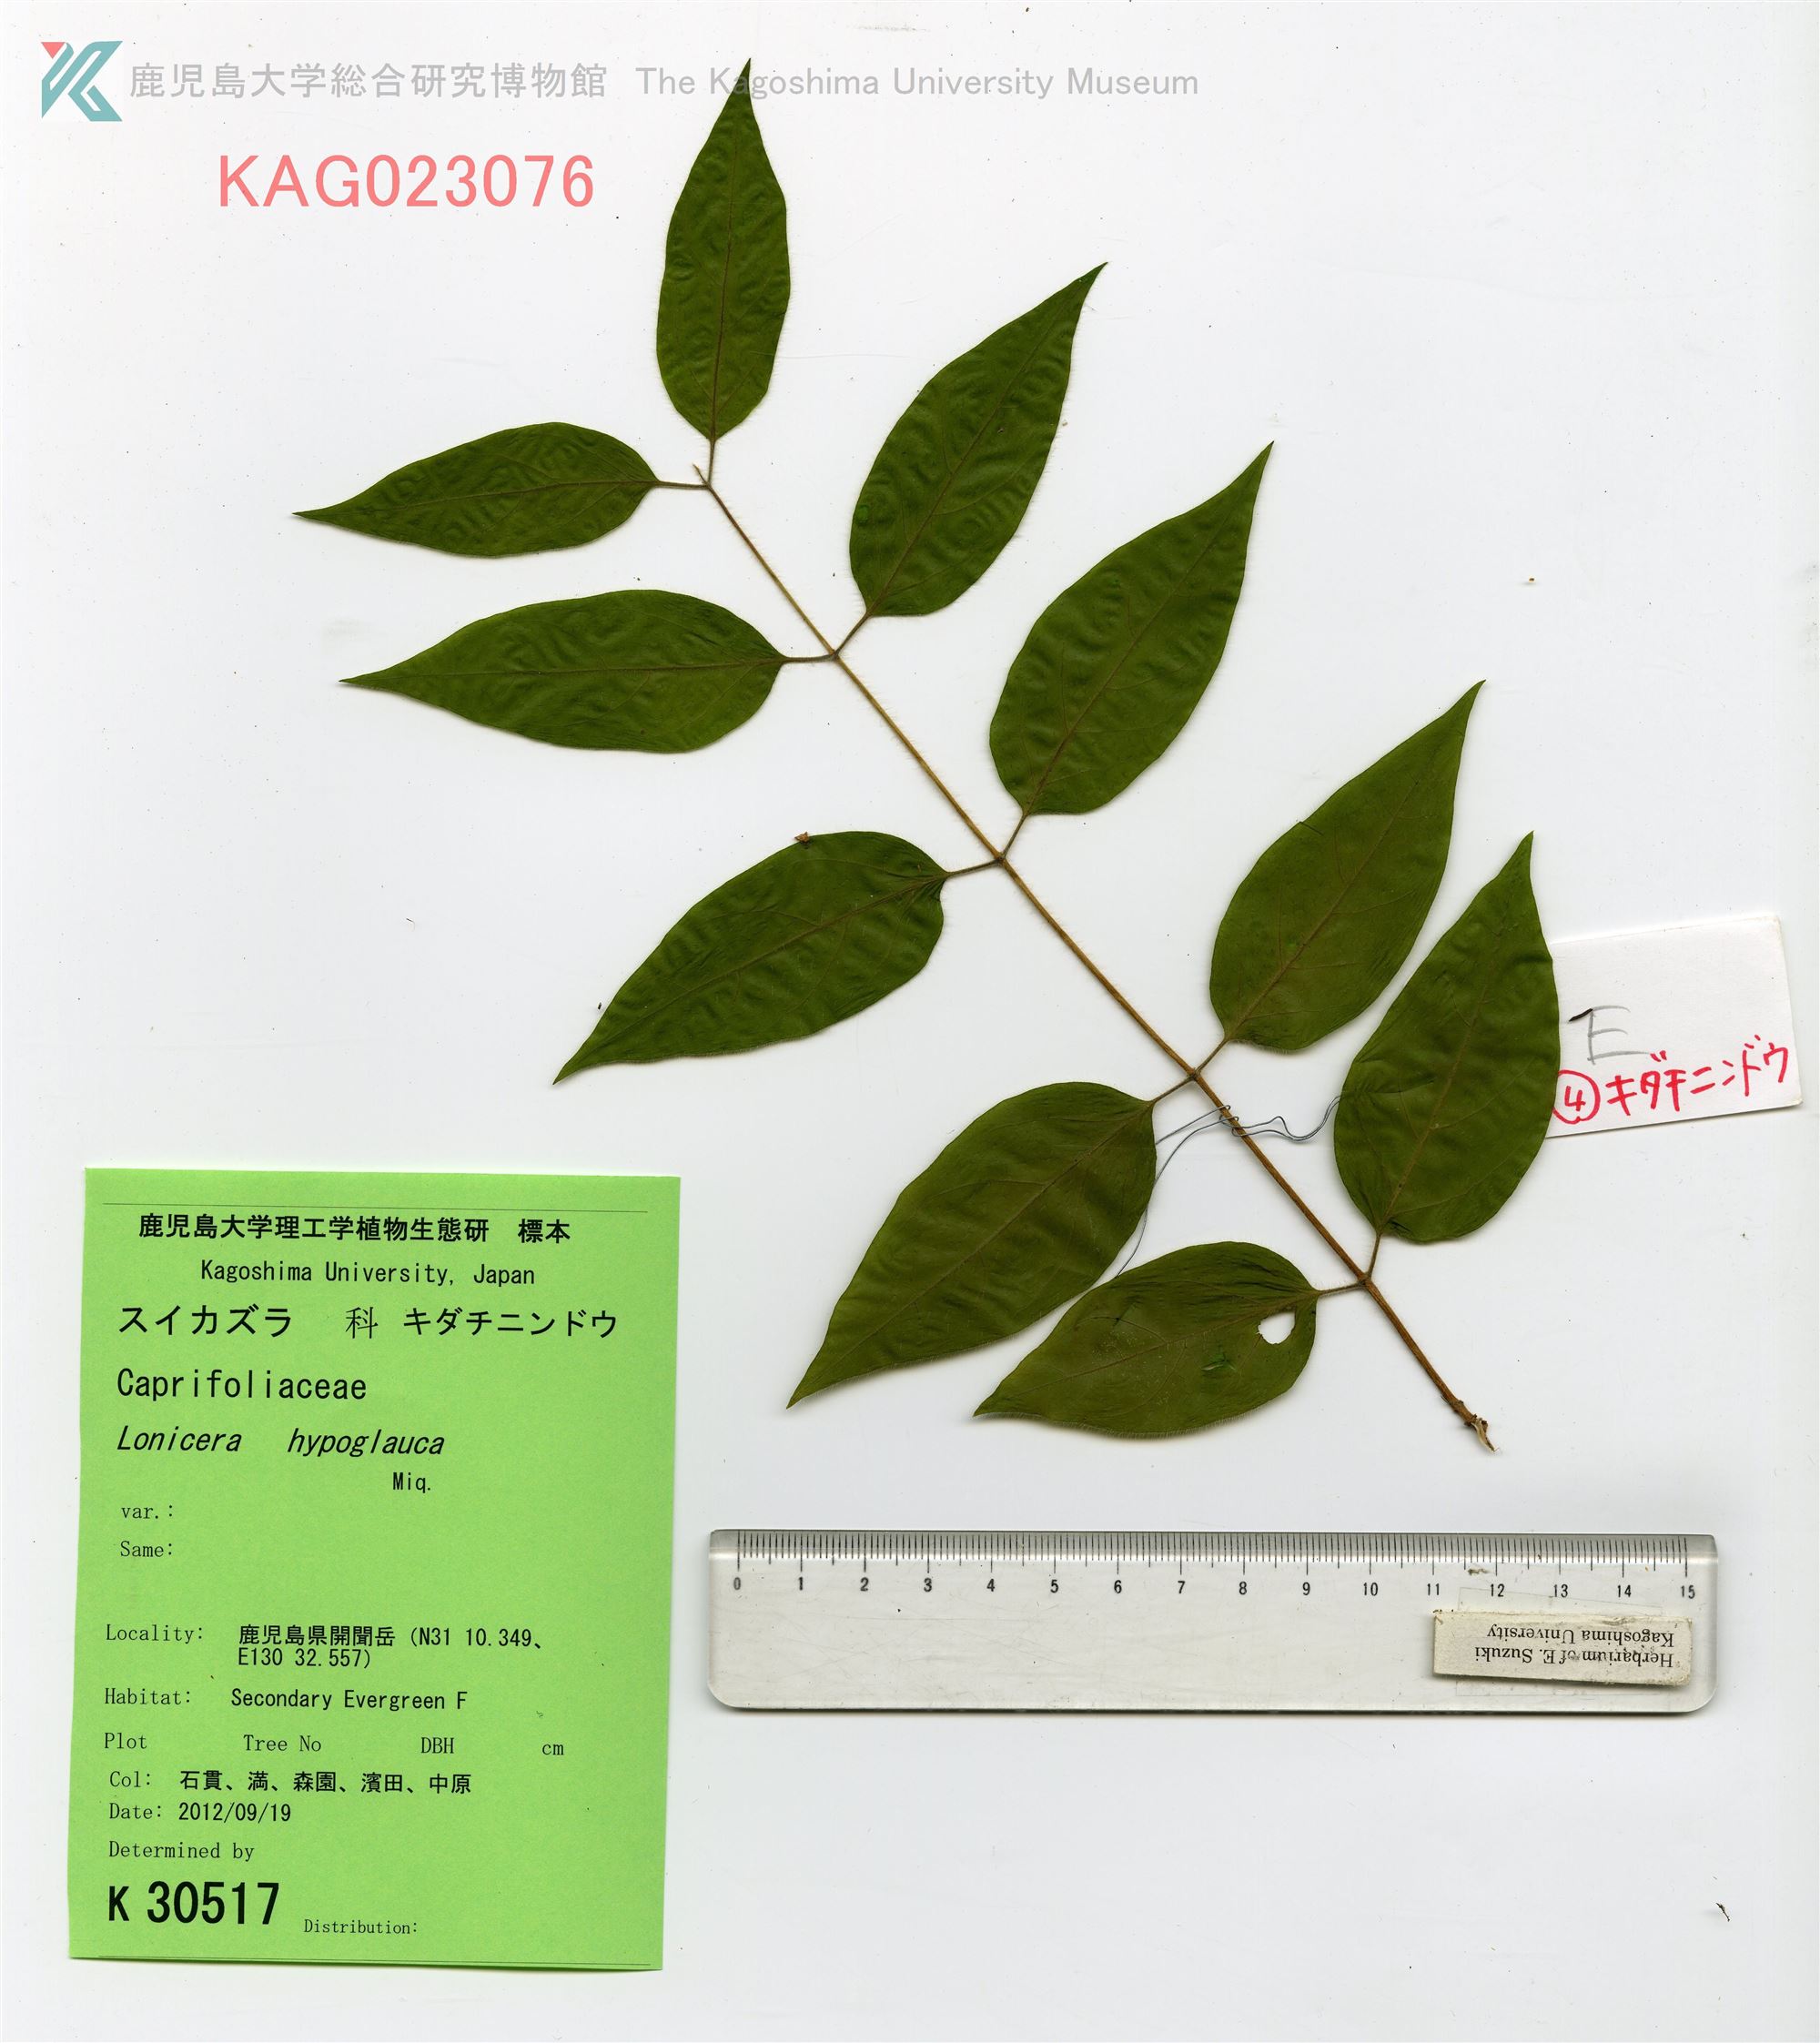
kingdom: Plantae
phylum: Tracheophyta
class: Magnoliopsida
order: Dipsacales
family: Caprifoliaceae
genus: Lonicera
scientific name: Lonicera hypoglauca
